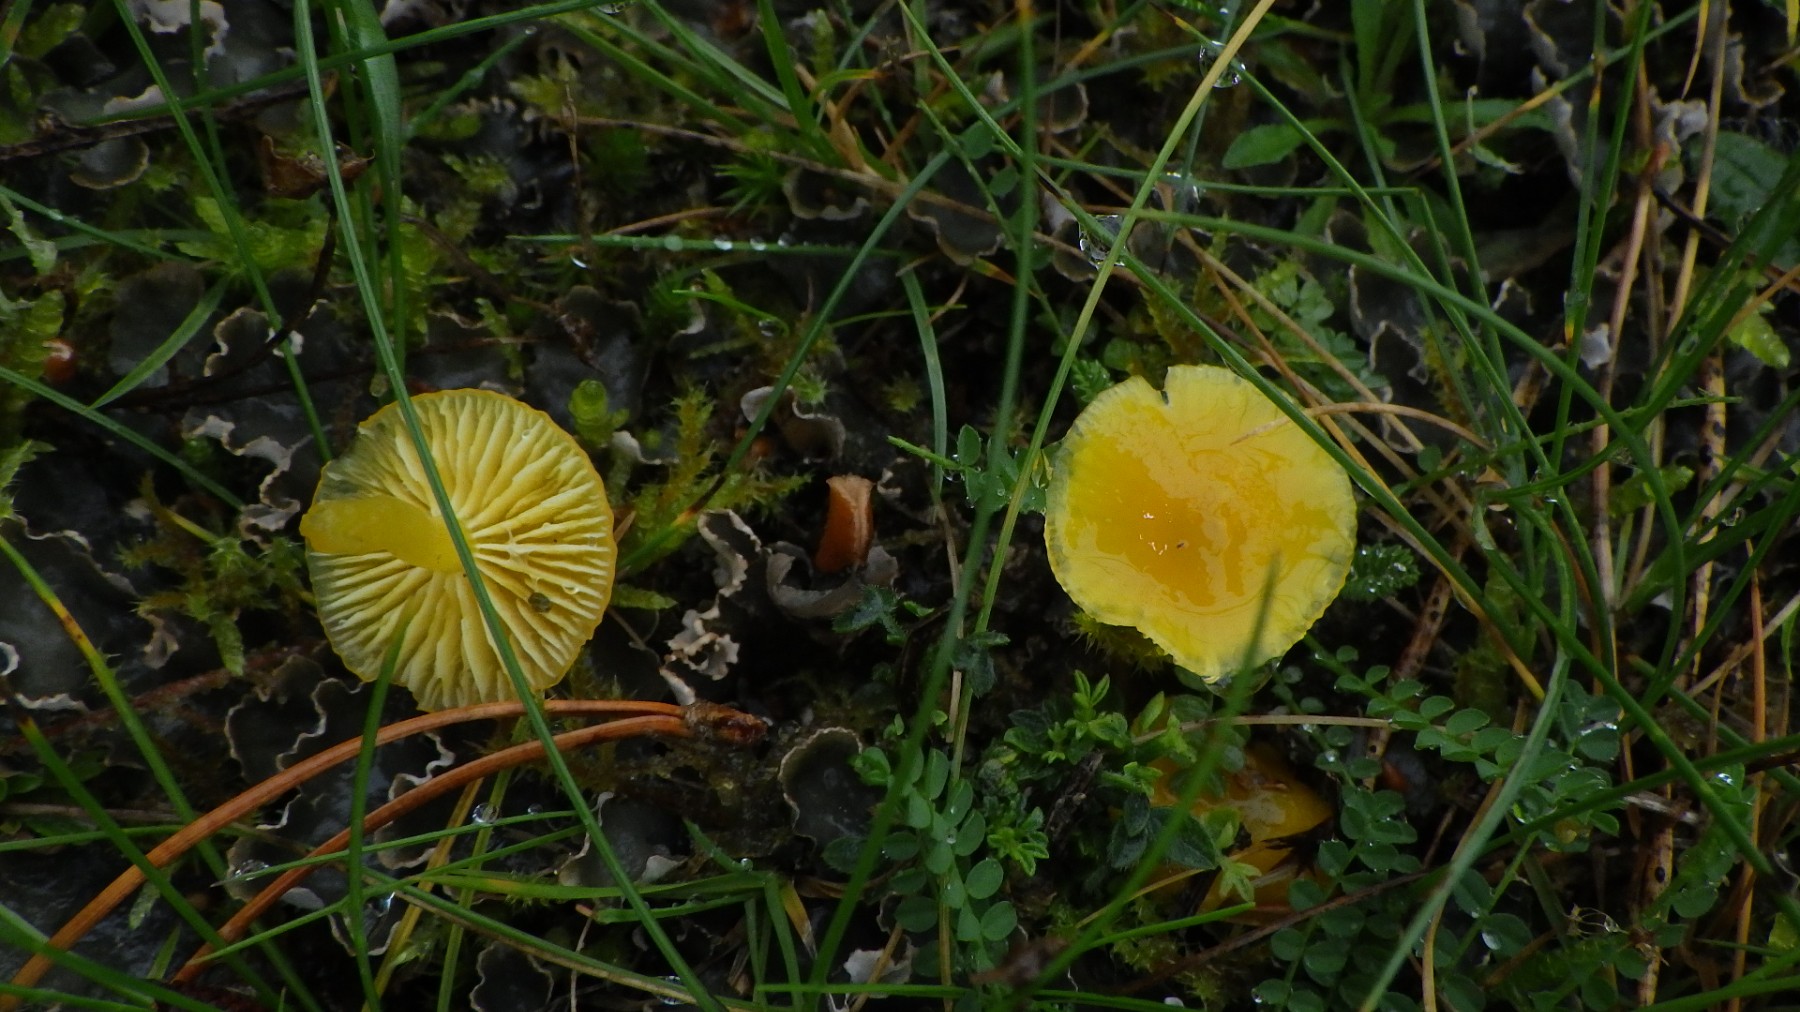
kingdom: Fungi
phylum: Basidiomycota
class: Agaricomycetes
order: Agaricales
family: Hygrophoraceae
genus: Hygrocybe
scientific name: Hygrocybe ceracea
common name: voksgul vokshat
